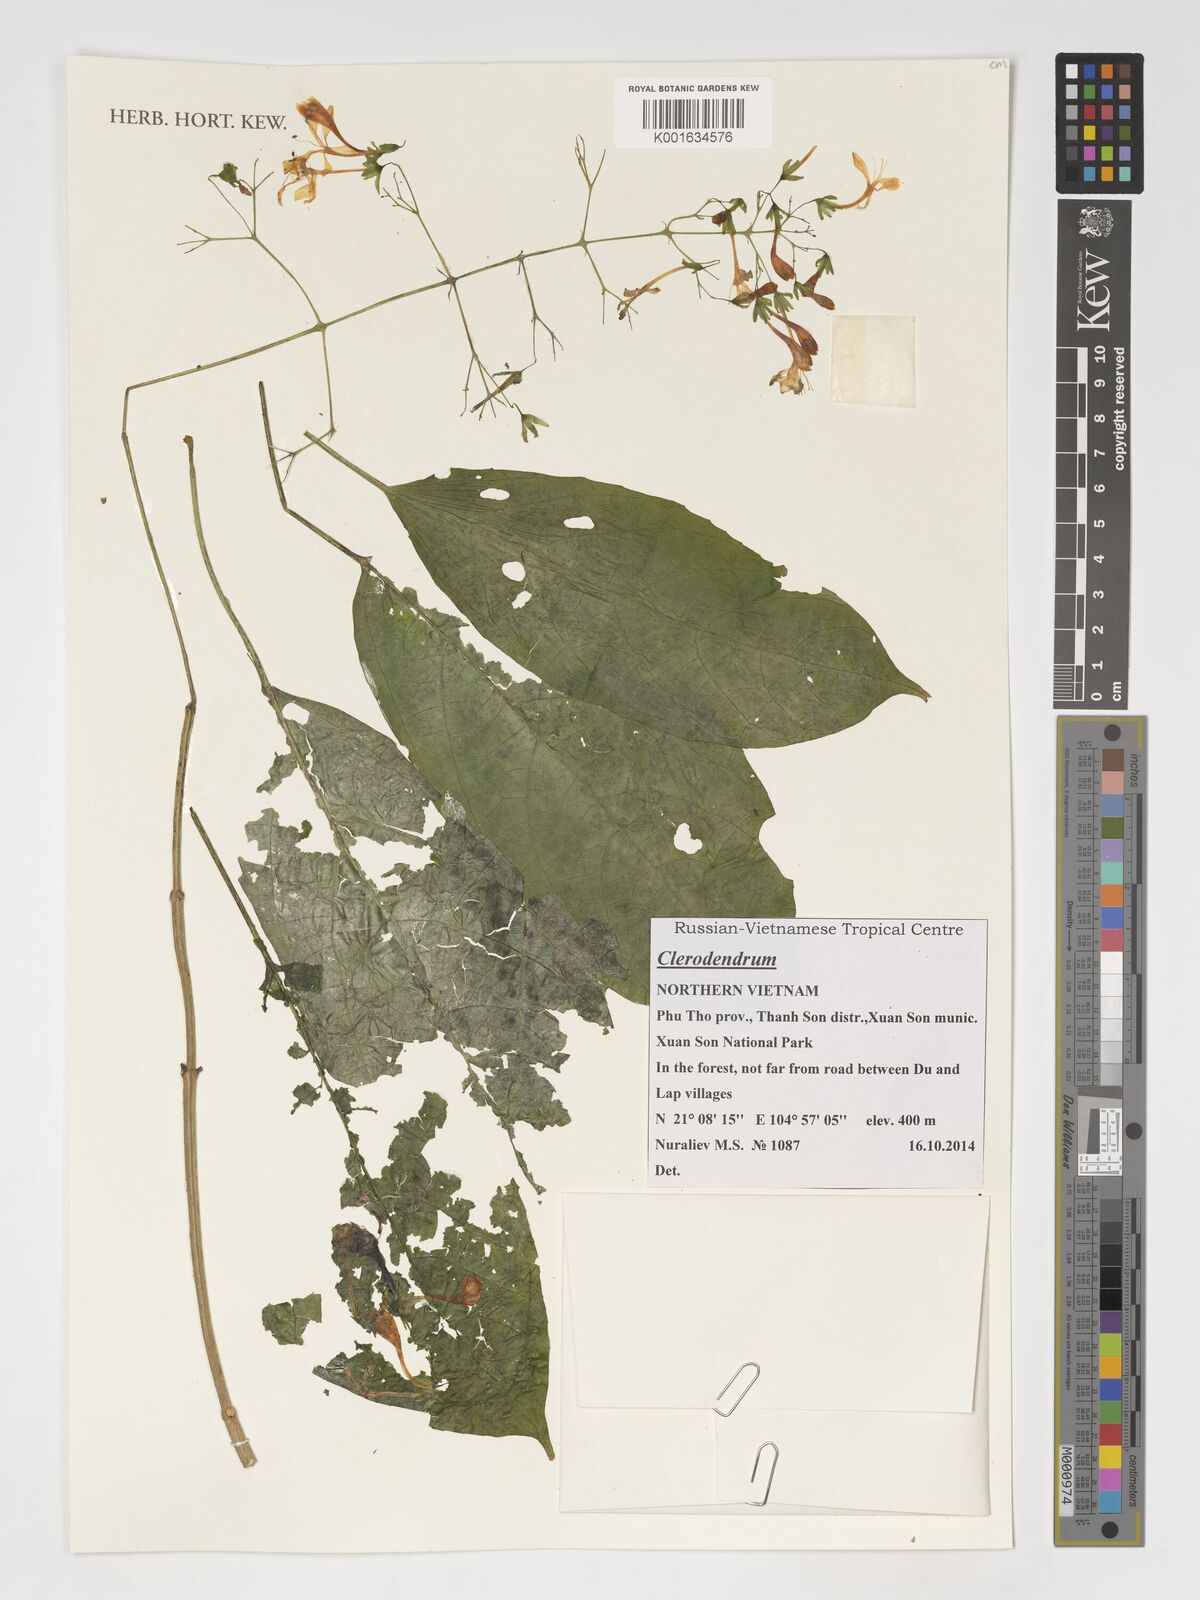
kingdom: Plantae
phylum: Tracheophyta
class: Magnoliopsida
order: Lamiales
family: Lamiaceae
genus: Clerodendrum
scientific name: Clerodendrum
